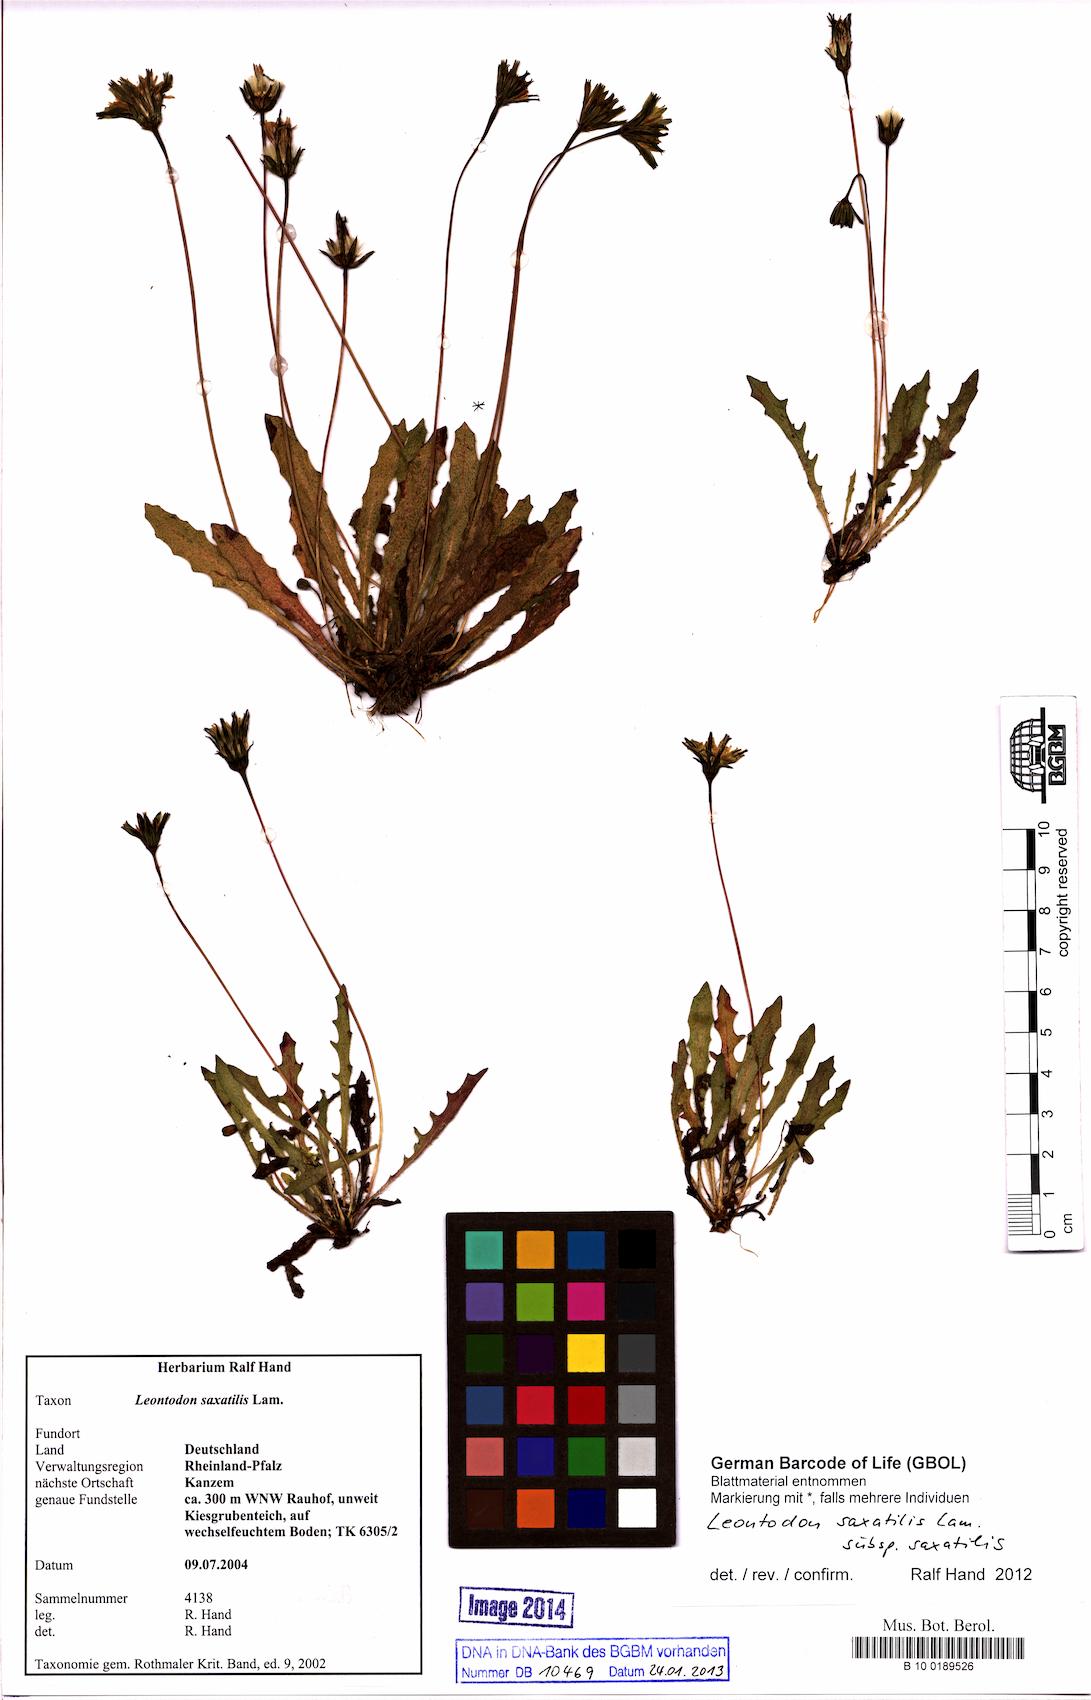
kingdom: Plantae
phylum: Tracheophyta
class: Magnoliopsida
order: Asterales
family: Asteraceae
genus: Thrincia
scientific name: Thrincia saxatilis
